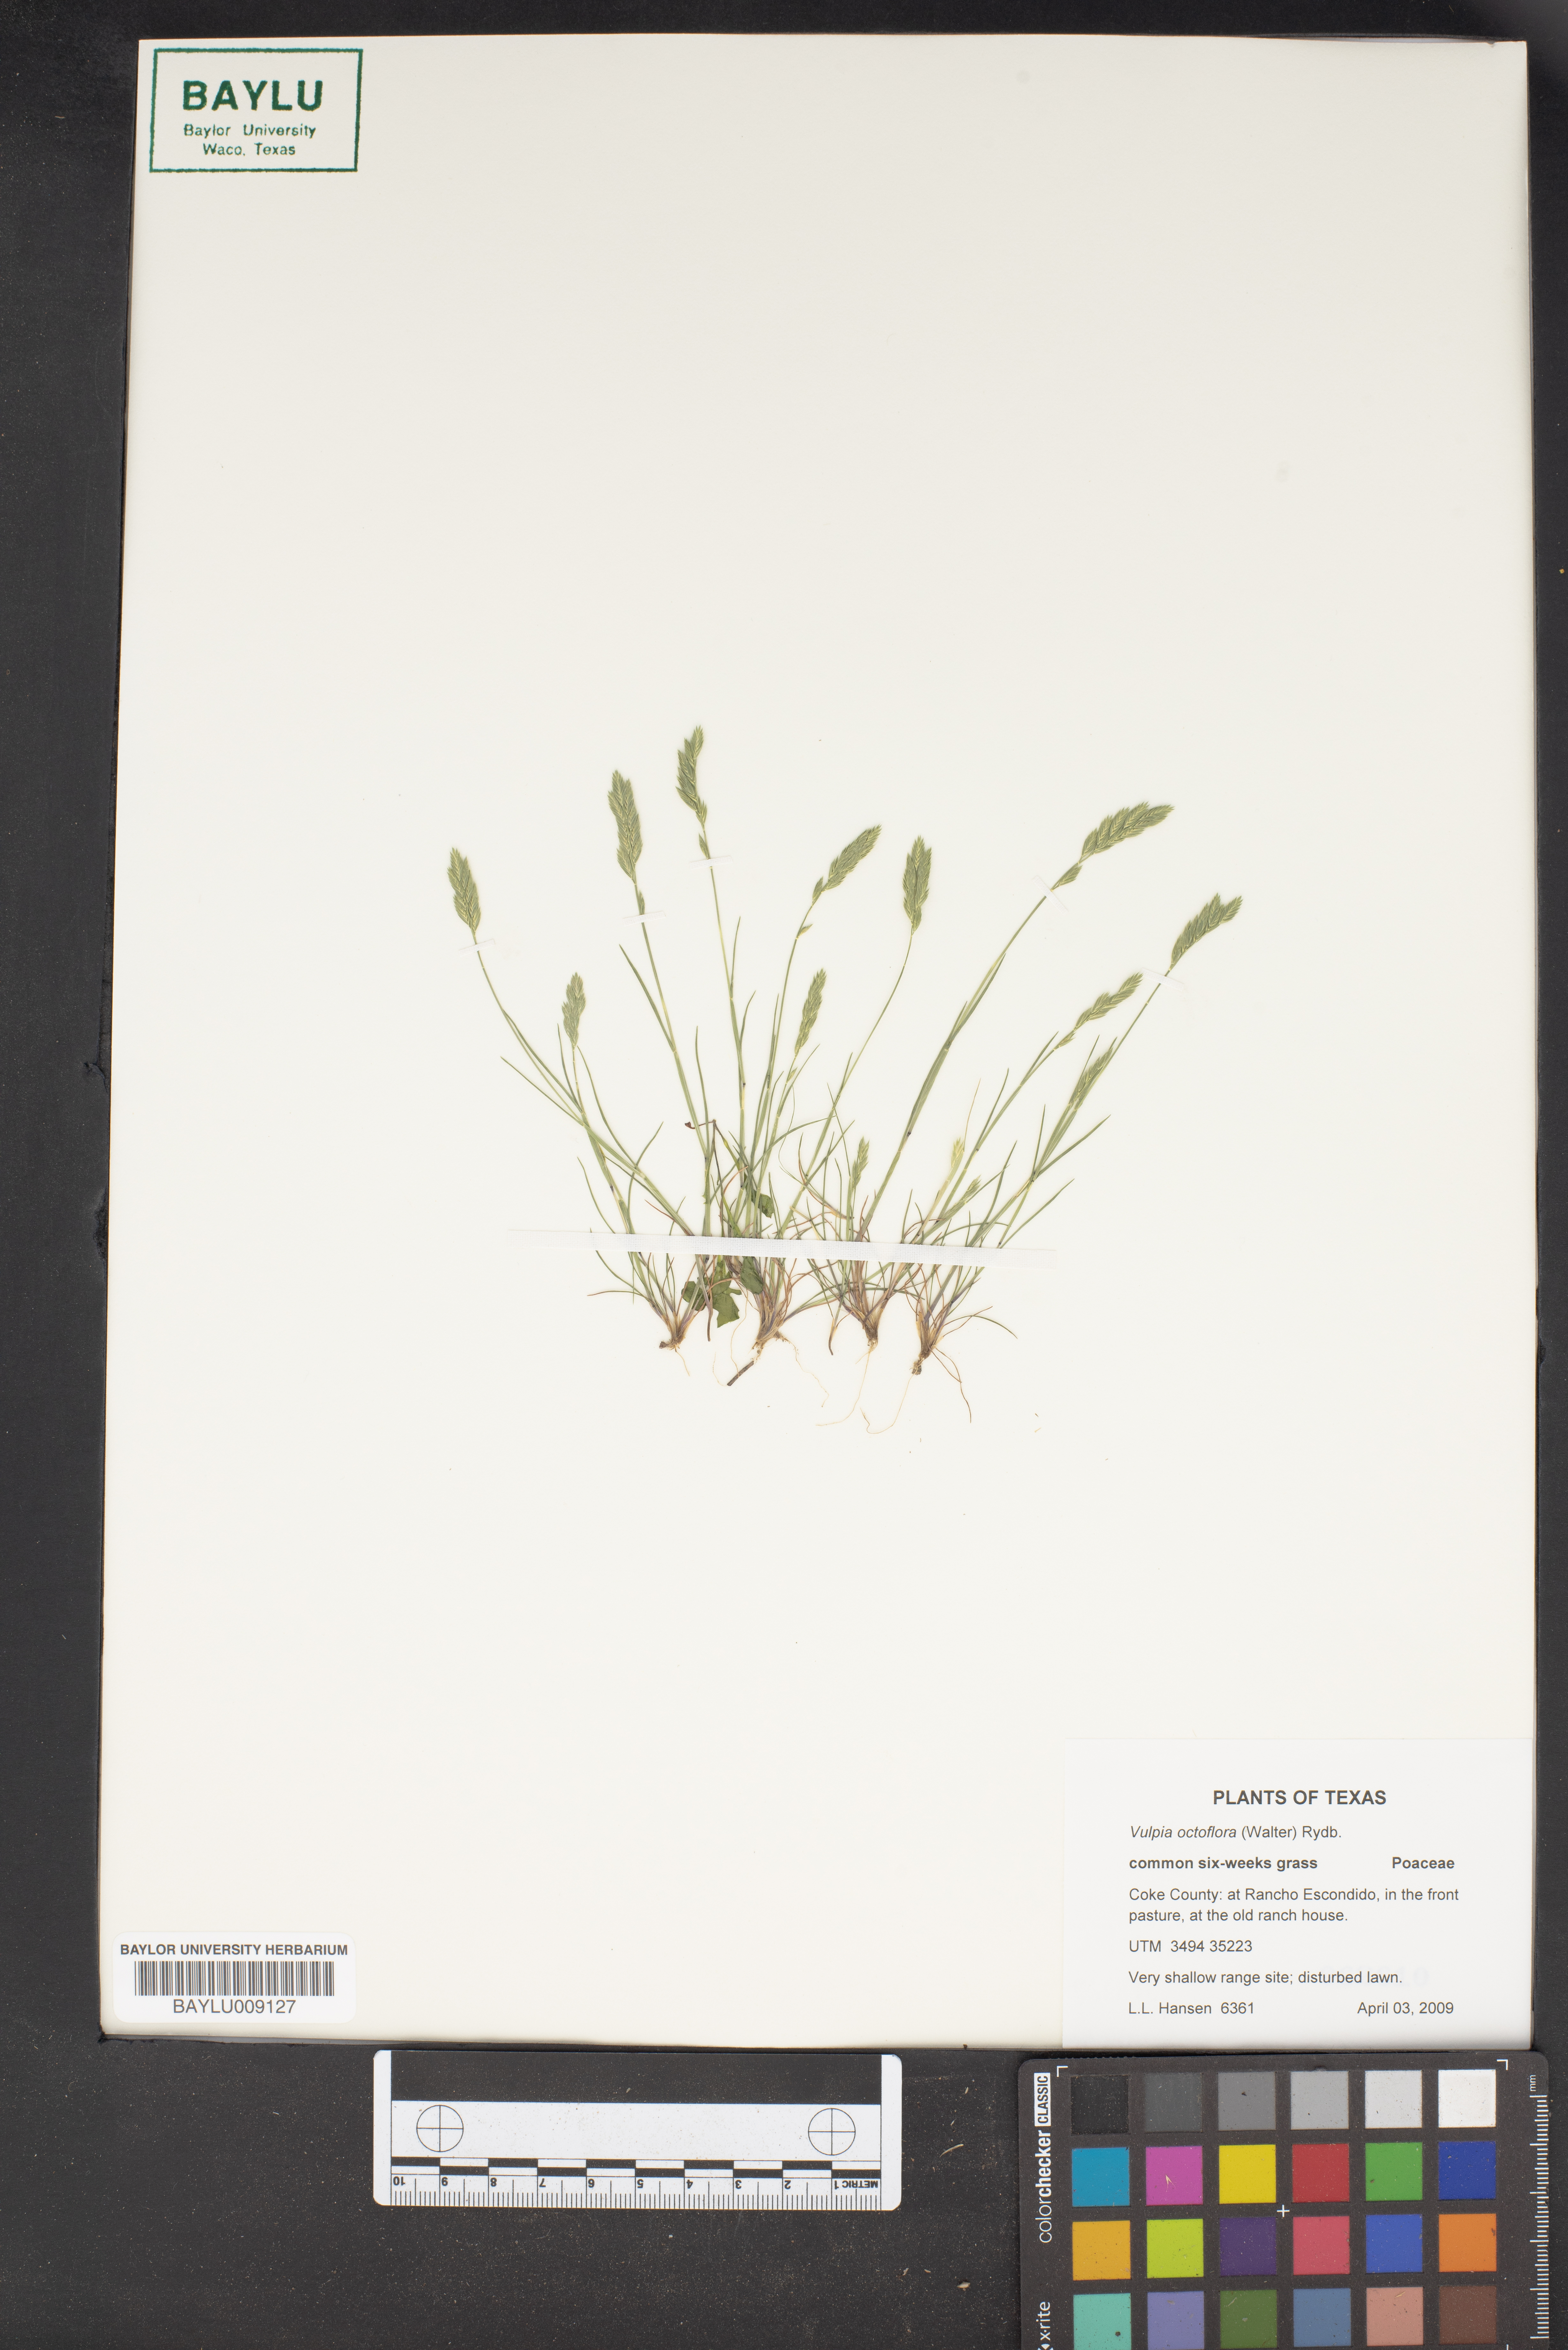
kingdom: Plantae
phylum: Tracheophyta
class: Liliopsida
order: Poales
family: Poaceae
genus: Festuca
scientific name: Festuca octoflora
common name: Sixweeks grass
